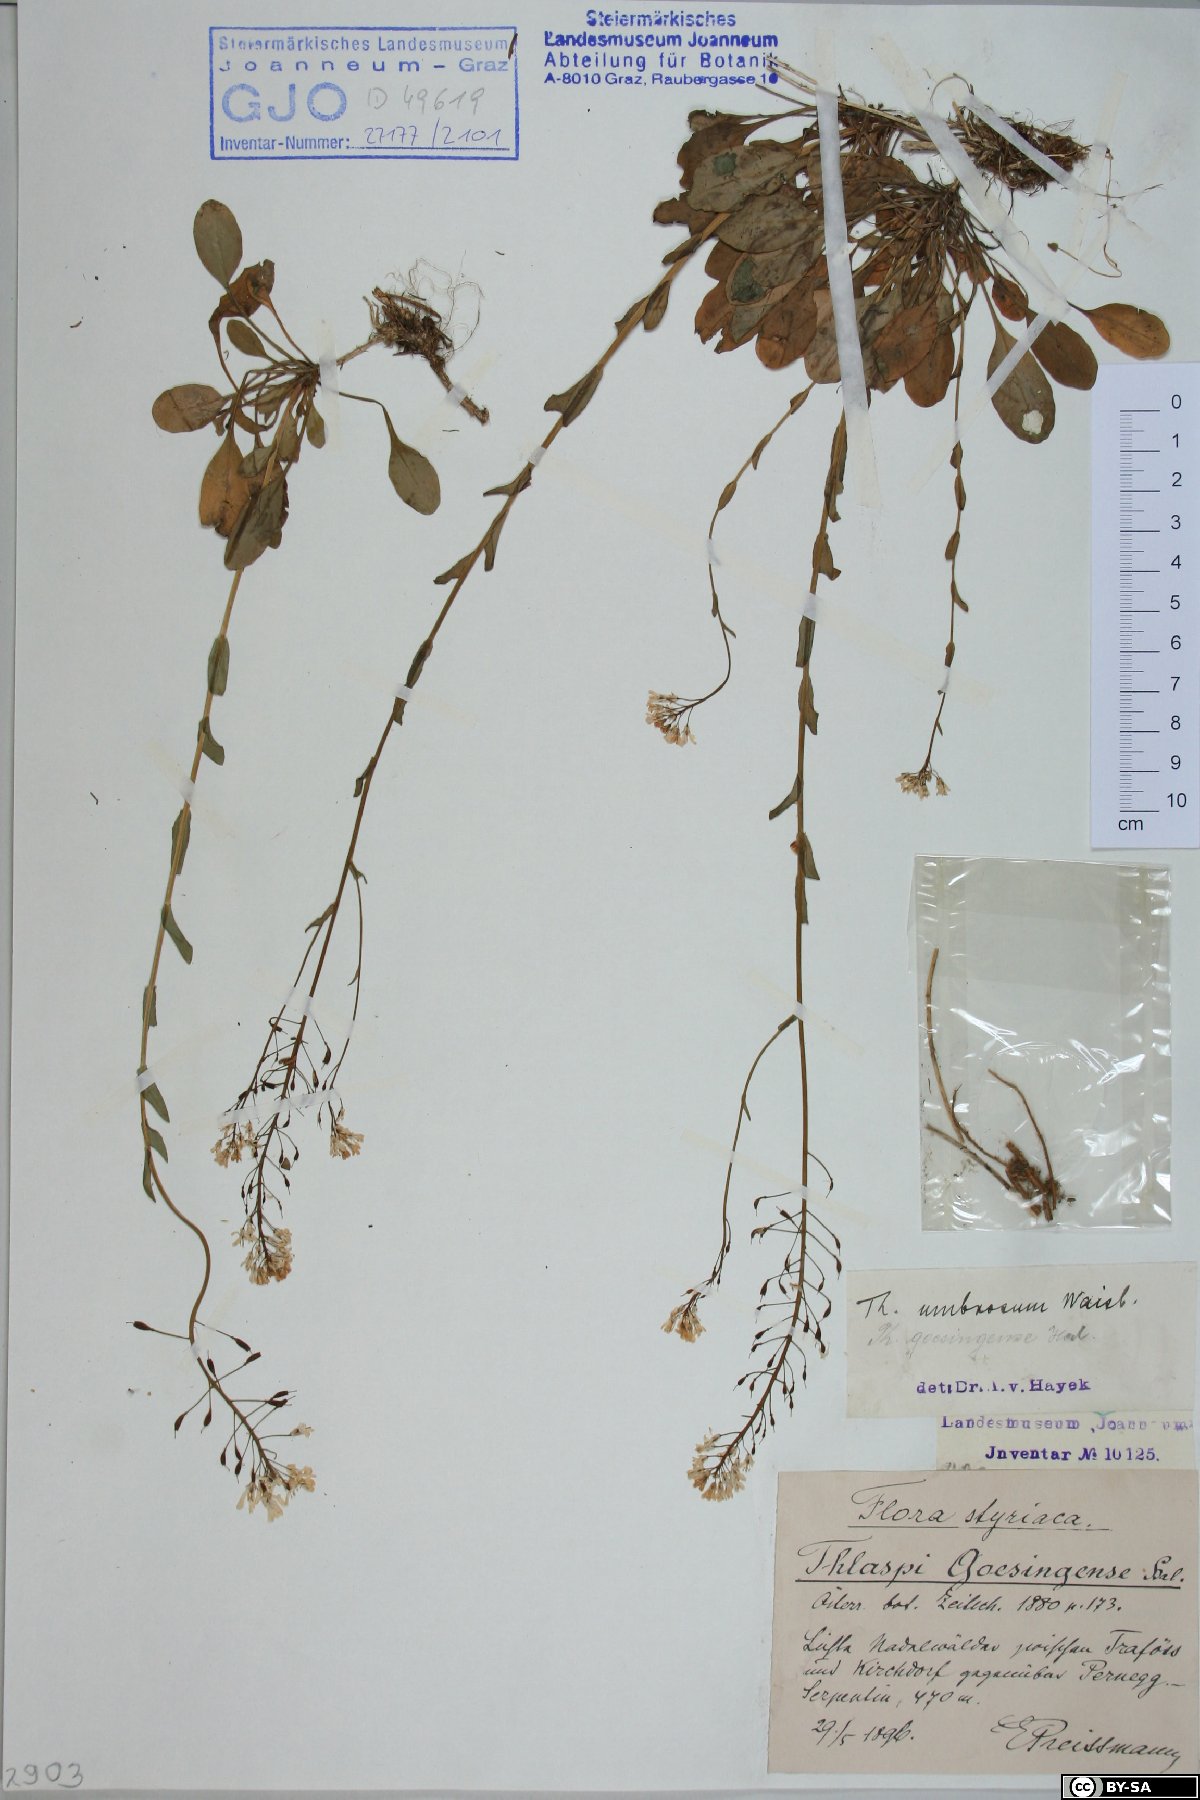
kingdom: Plantae
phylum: Tracheophyta
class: Magnoliopsida
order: Brassicales
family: Brassicaceae
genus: Noccaea
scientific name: Noccaea goesingensis
